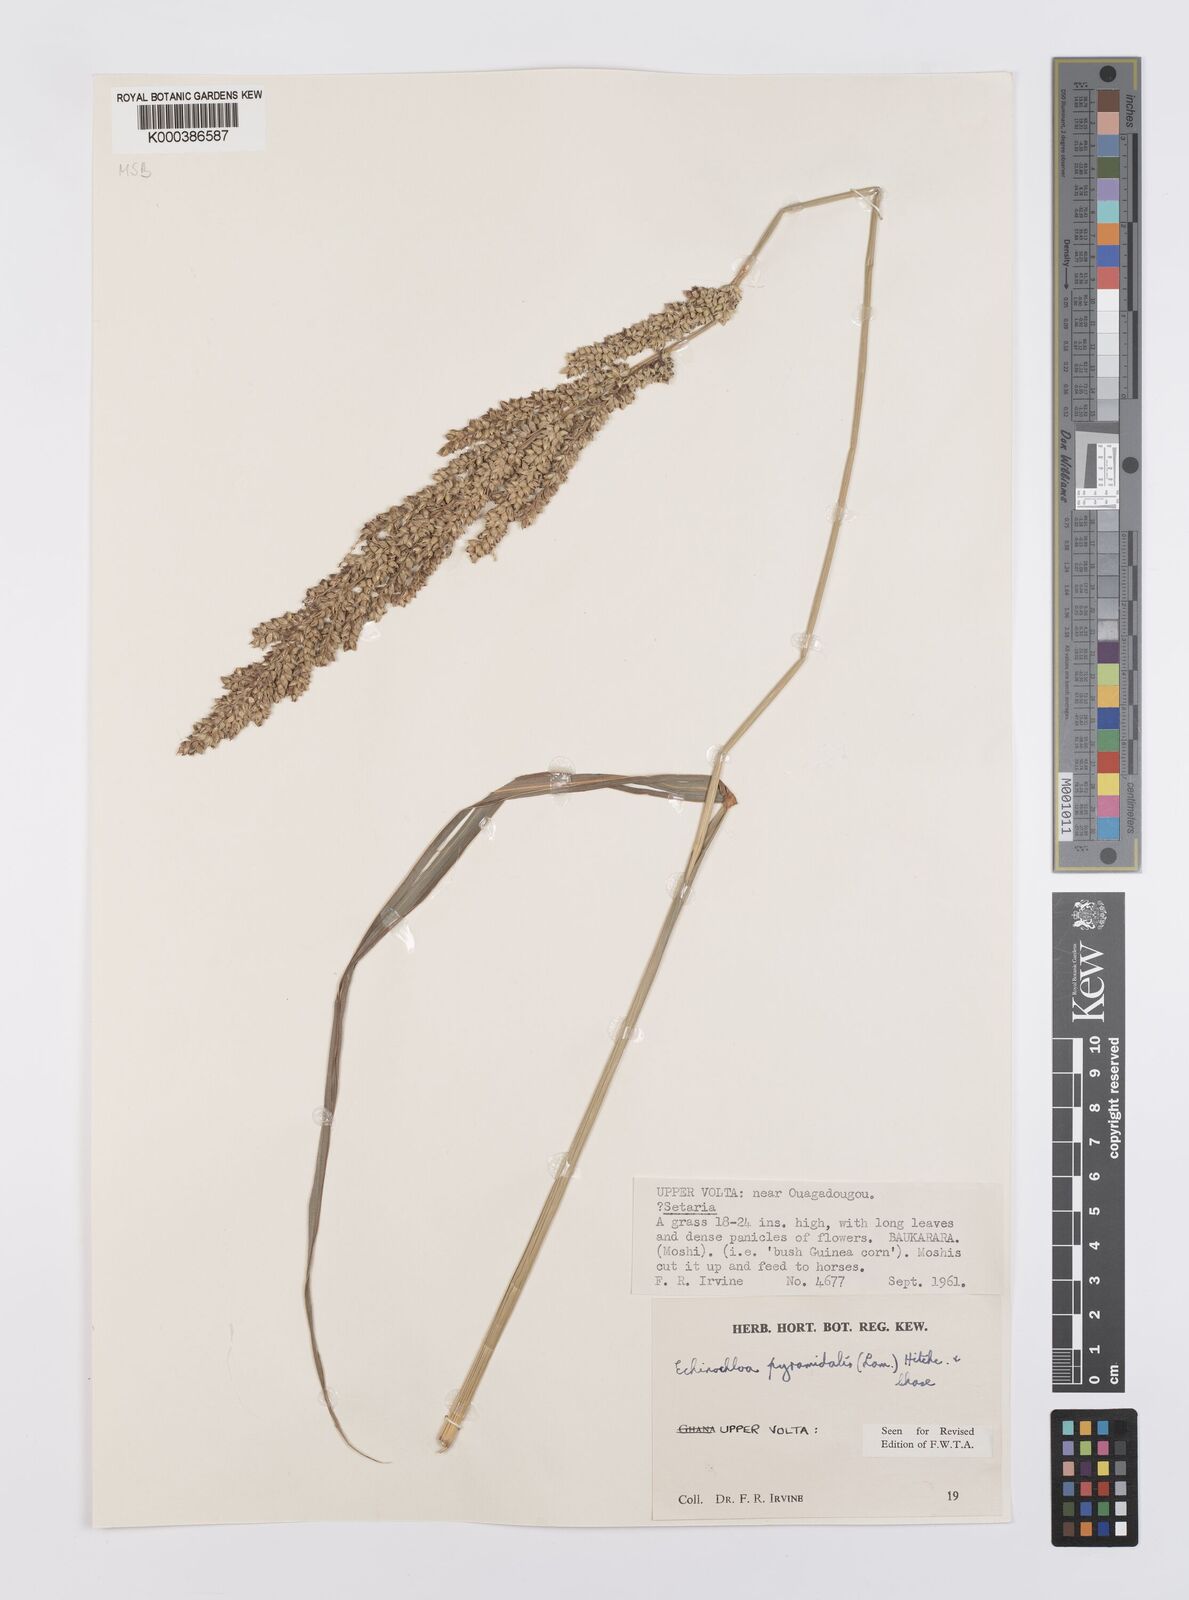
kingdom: Plantae
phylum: Tracheophyta
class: Liliopsida
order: Poales
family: Poaceae
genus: Echinochloa
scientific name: Echinochloa pyramidalis
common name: Antelope grass
